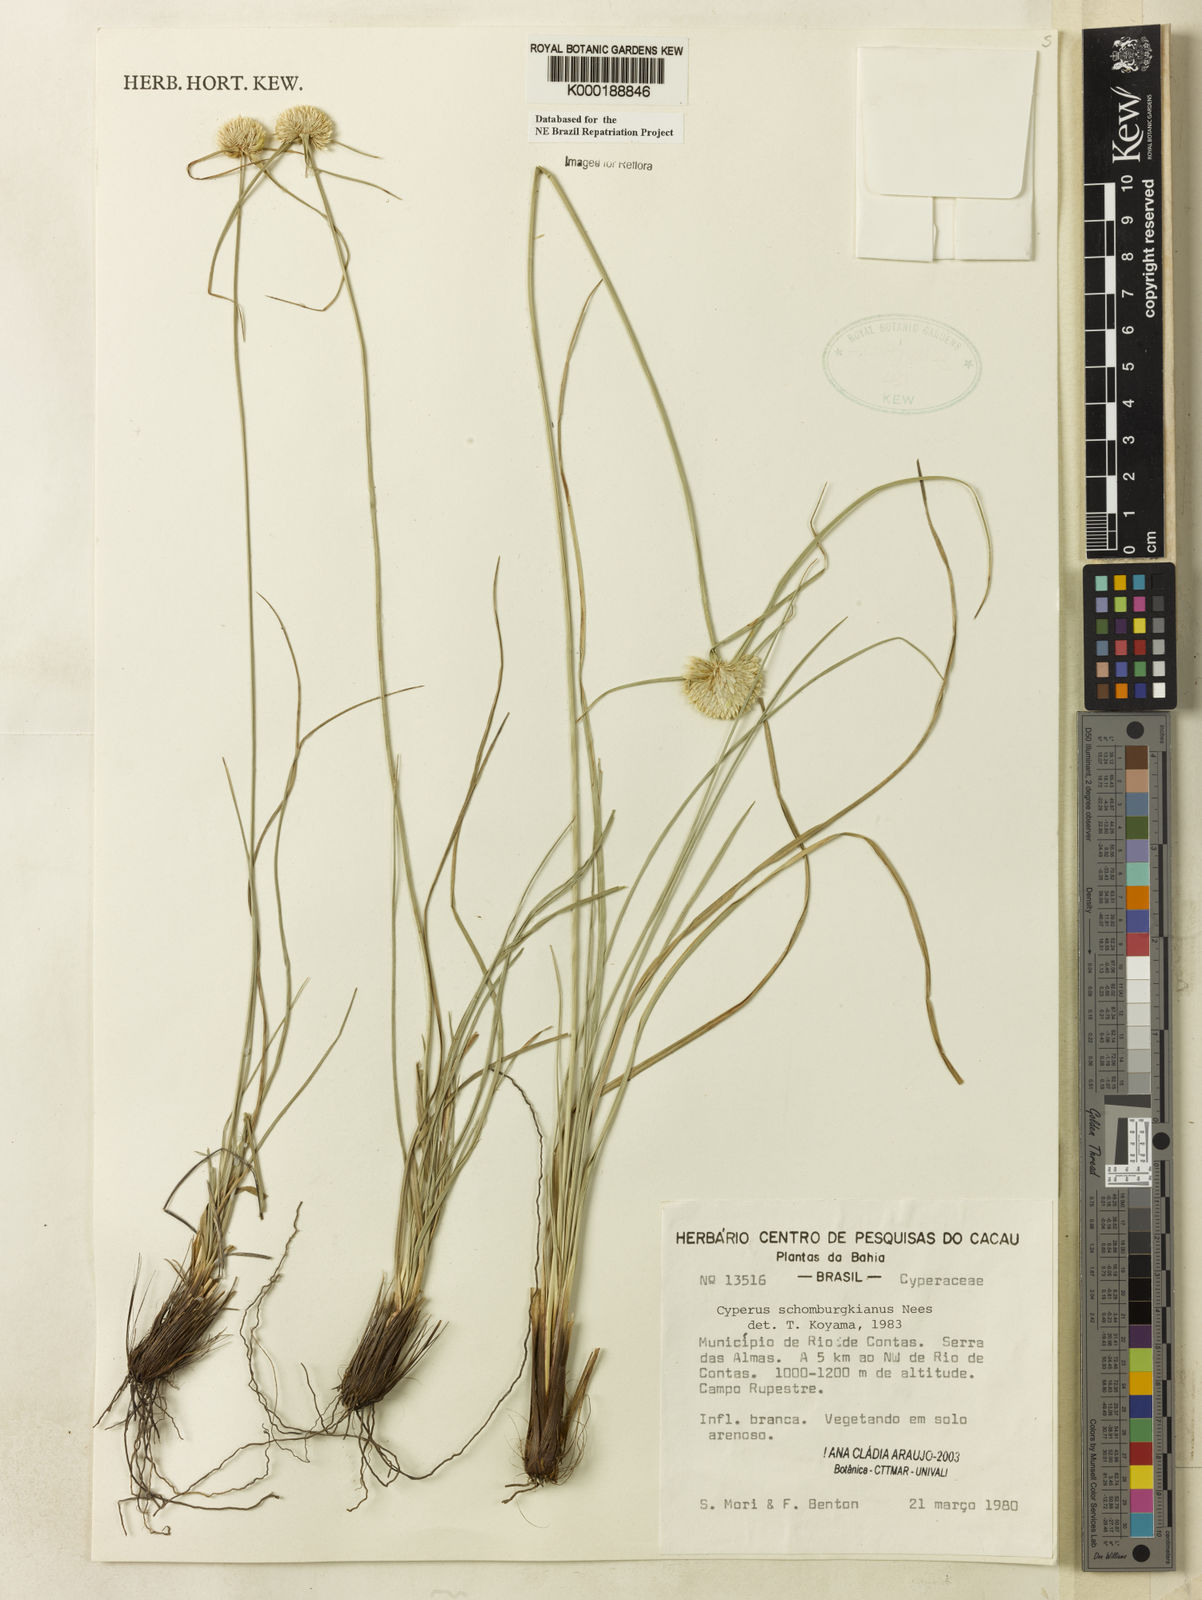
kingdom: Plantae
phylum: Tracheophyta
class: Liliopsida
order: Poales
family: Cyperaceae
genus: Cyperus
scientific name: Cyperus schomburgkianus
